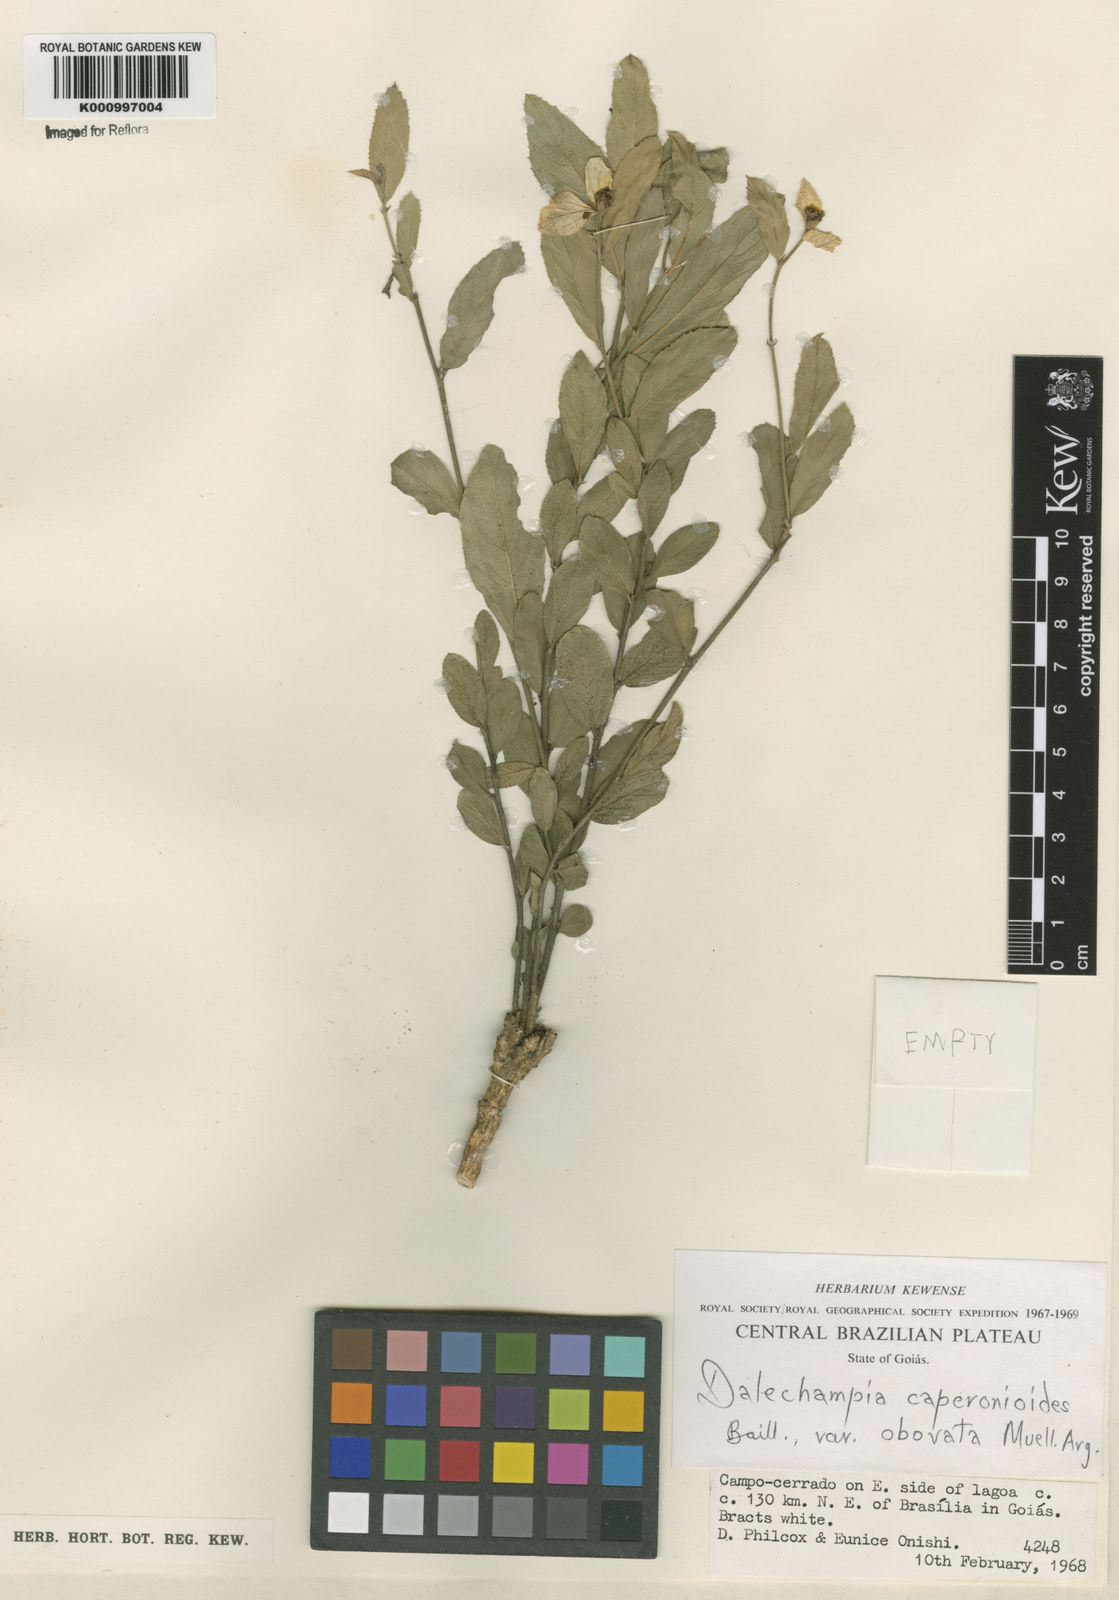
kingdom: Plantae
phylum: Tracheophyta
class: Magnoliopsida
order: Malpighiales
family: Euphorbiaceae
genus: Dalechampia
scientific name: Dalechampia caperonioides
